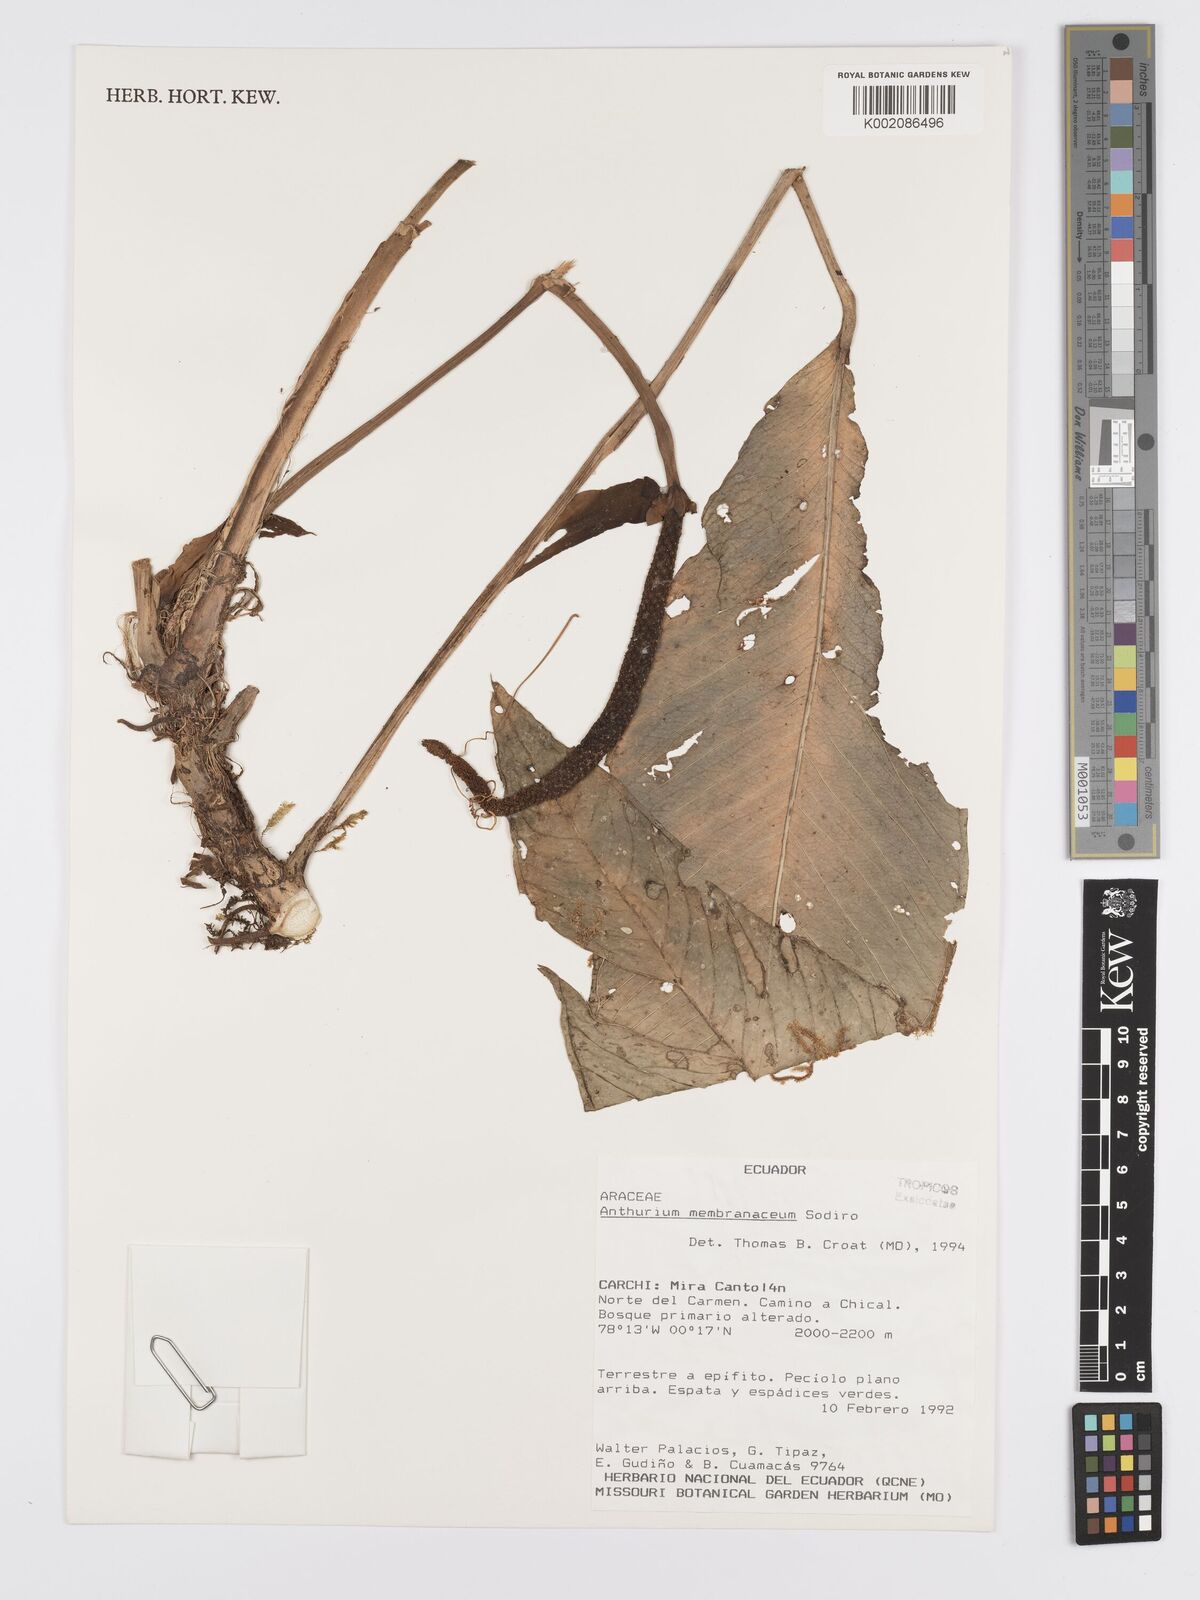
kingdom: Plantae
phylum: Tracheophyta
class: Liliopsida
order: Alismatales
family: Araceae
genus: Anthurium
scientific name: Anthurium membranaceum
